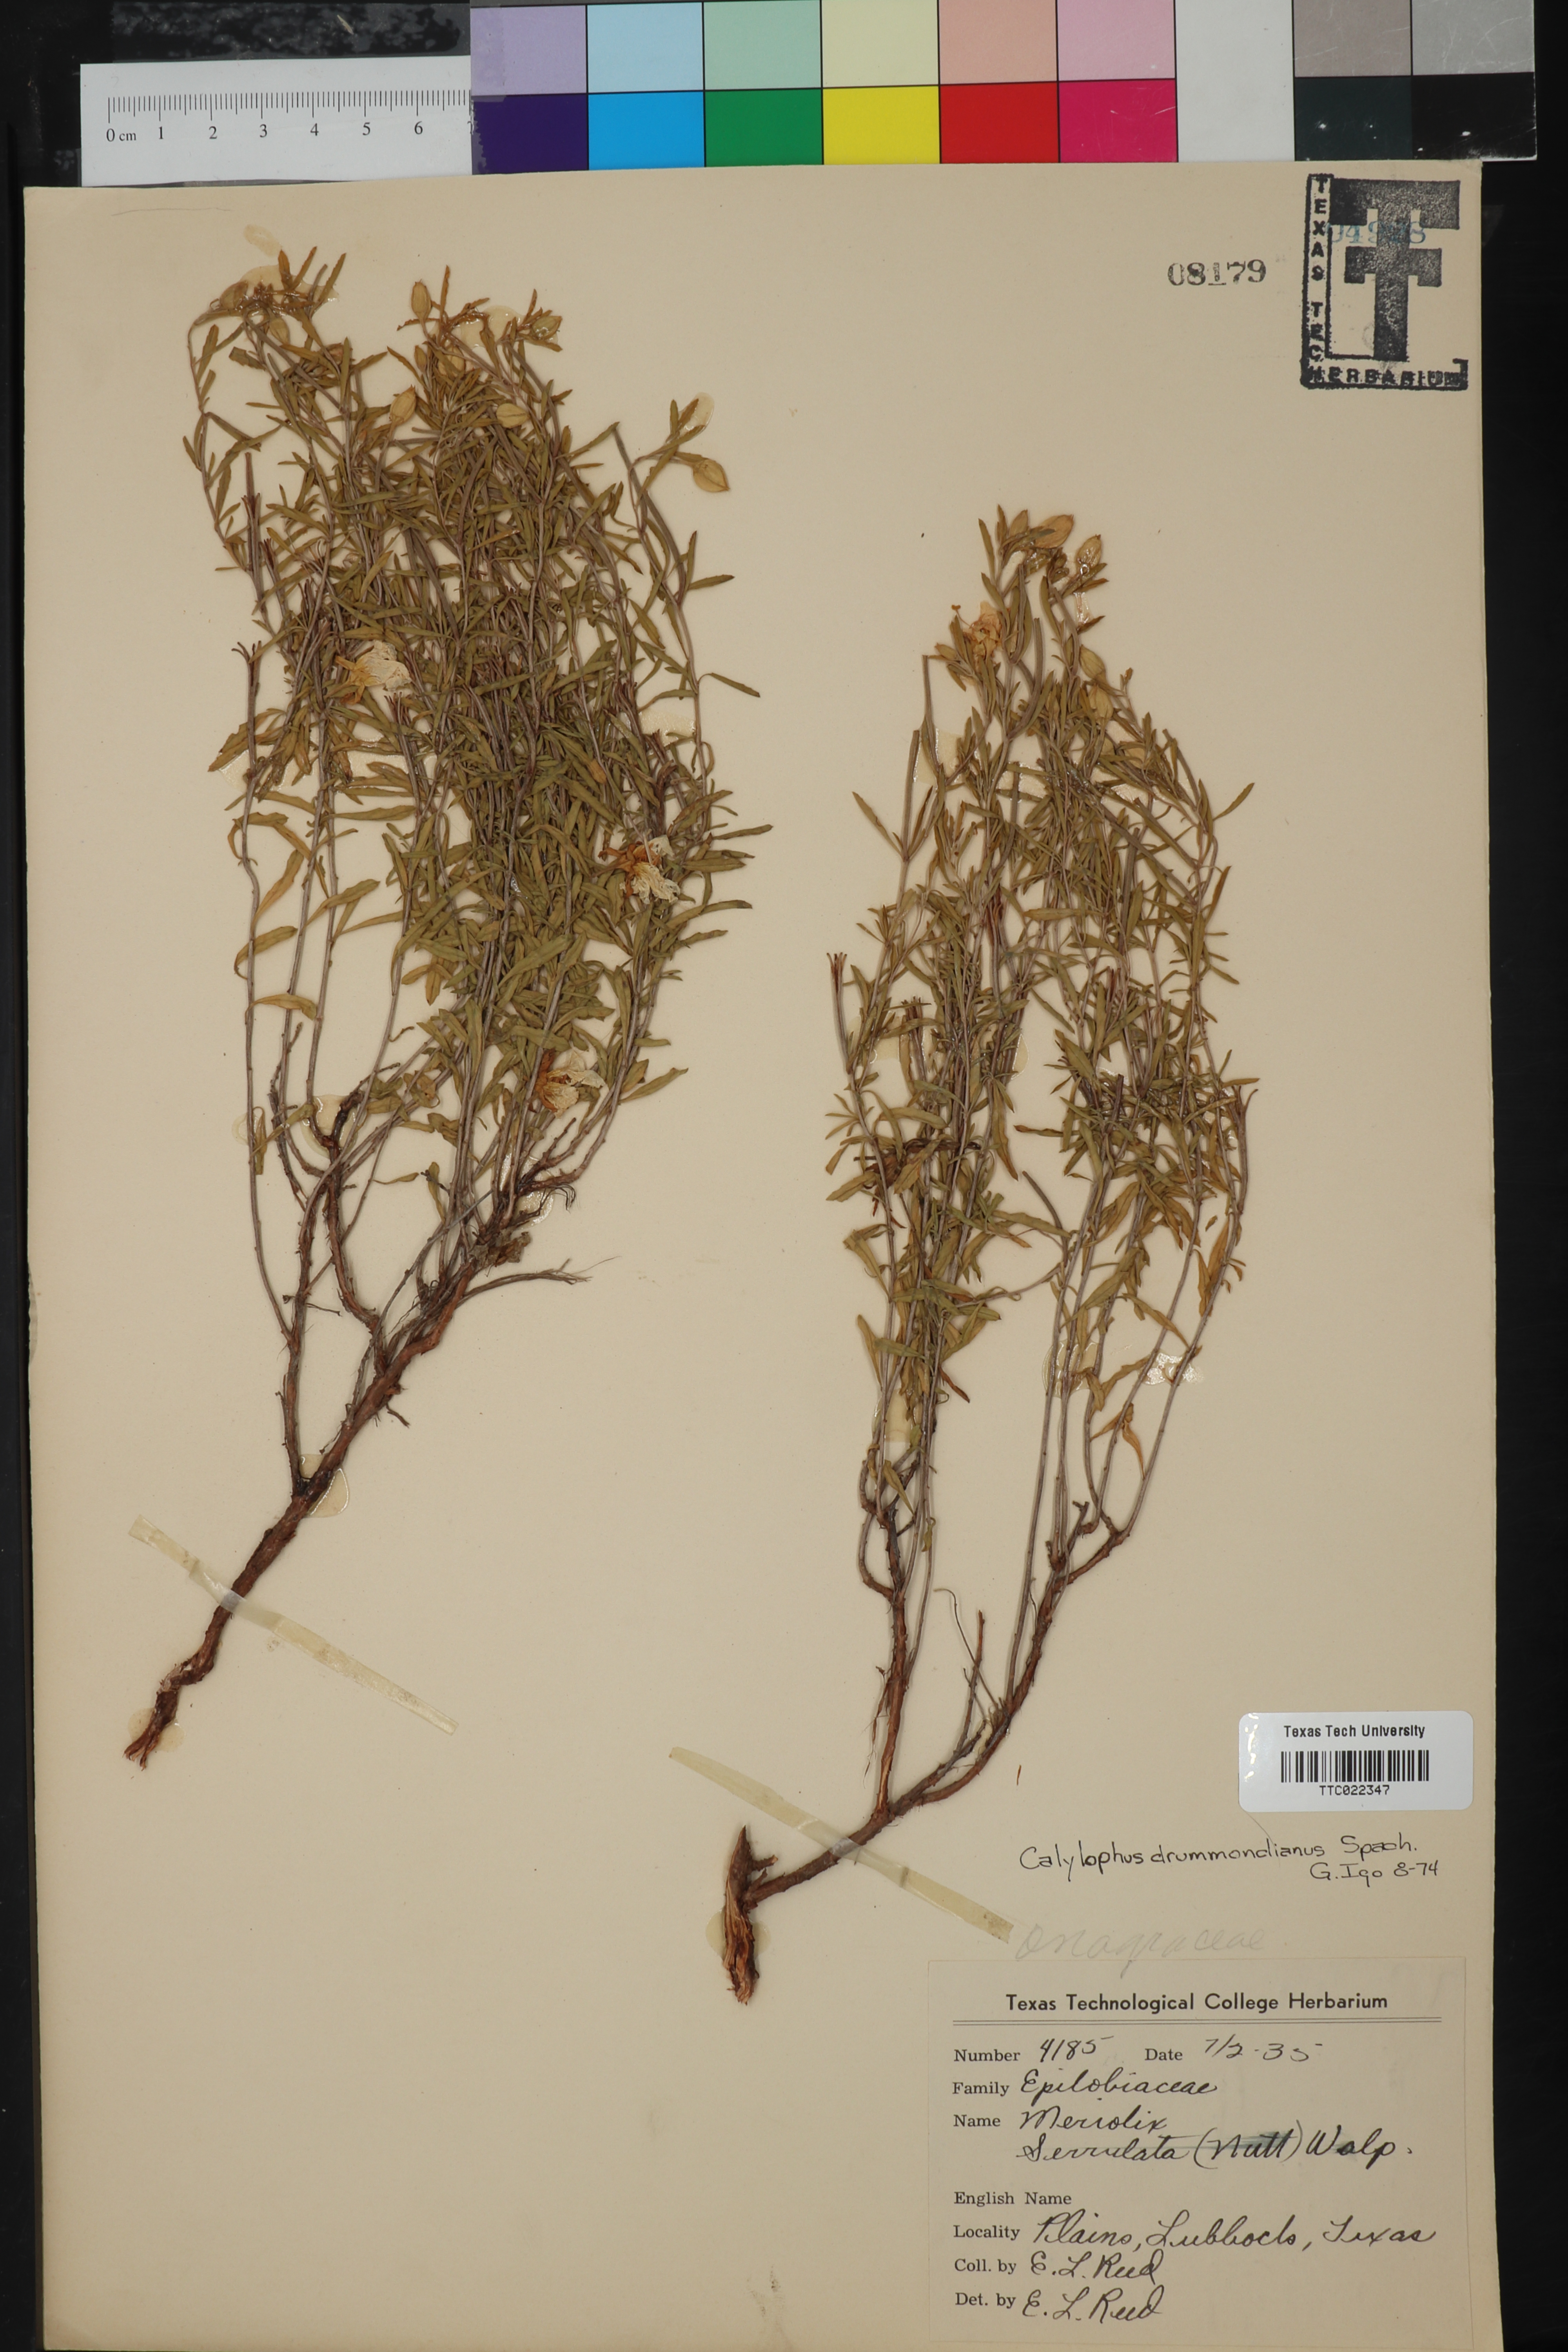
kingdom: Plantae
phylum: Tracheophyta
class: Magnoliopsida
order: Myrtales
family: Onagraceae
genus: Oenothera
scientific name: Oenothera serrulata
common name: Half-shrub calylophus
